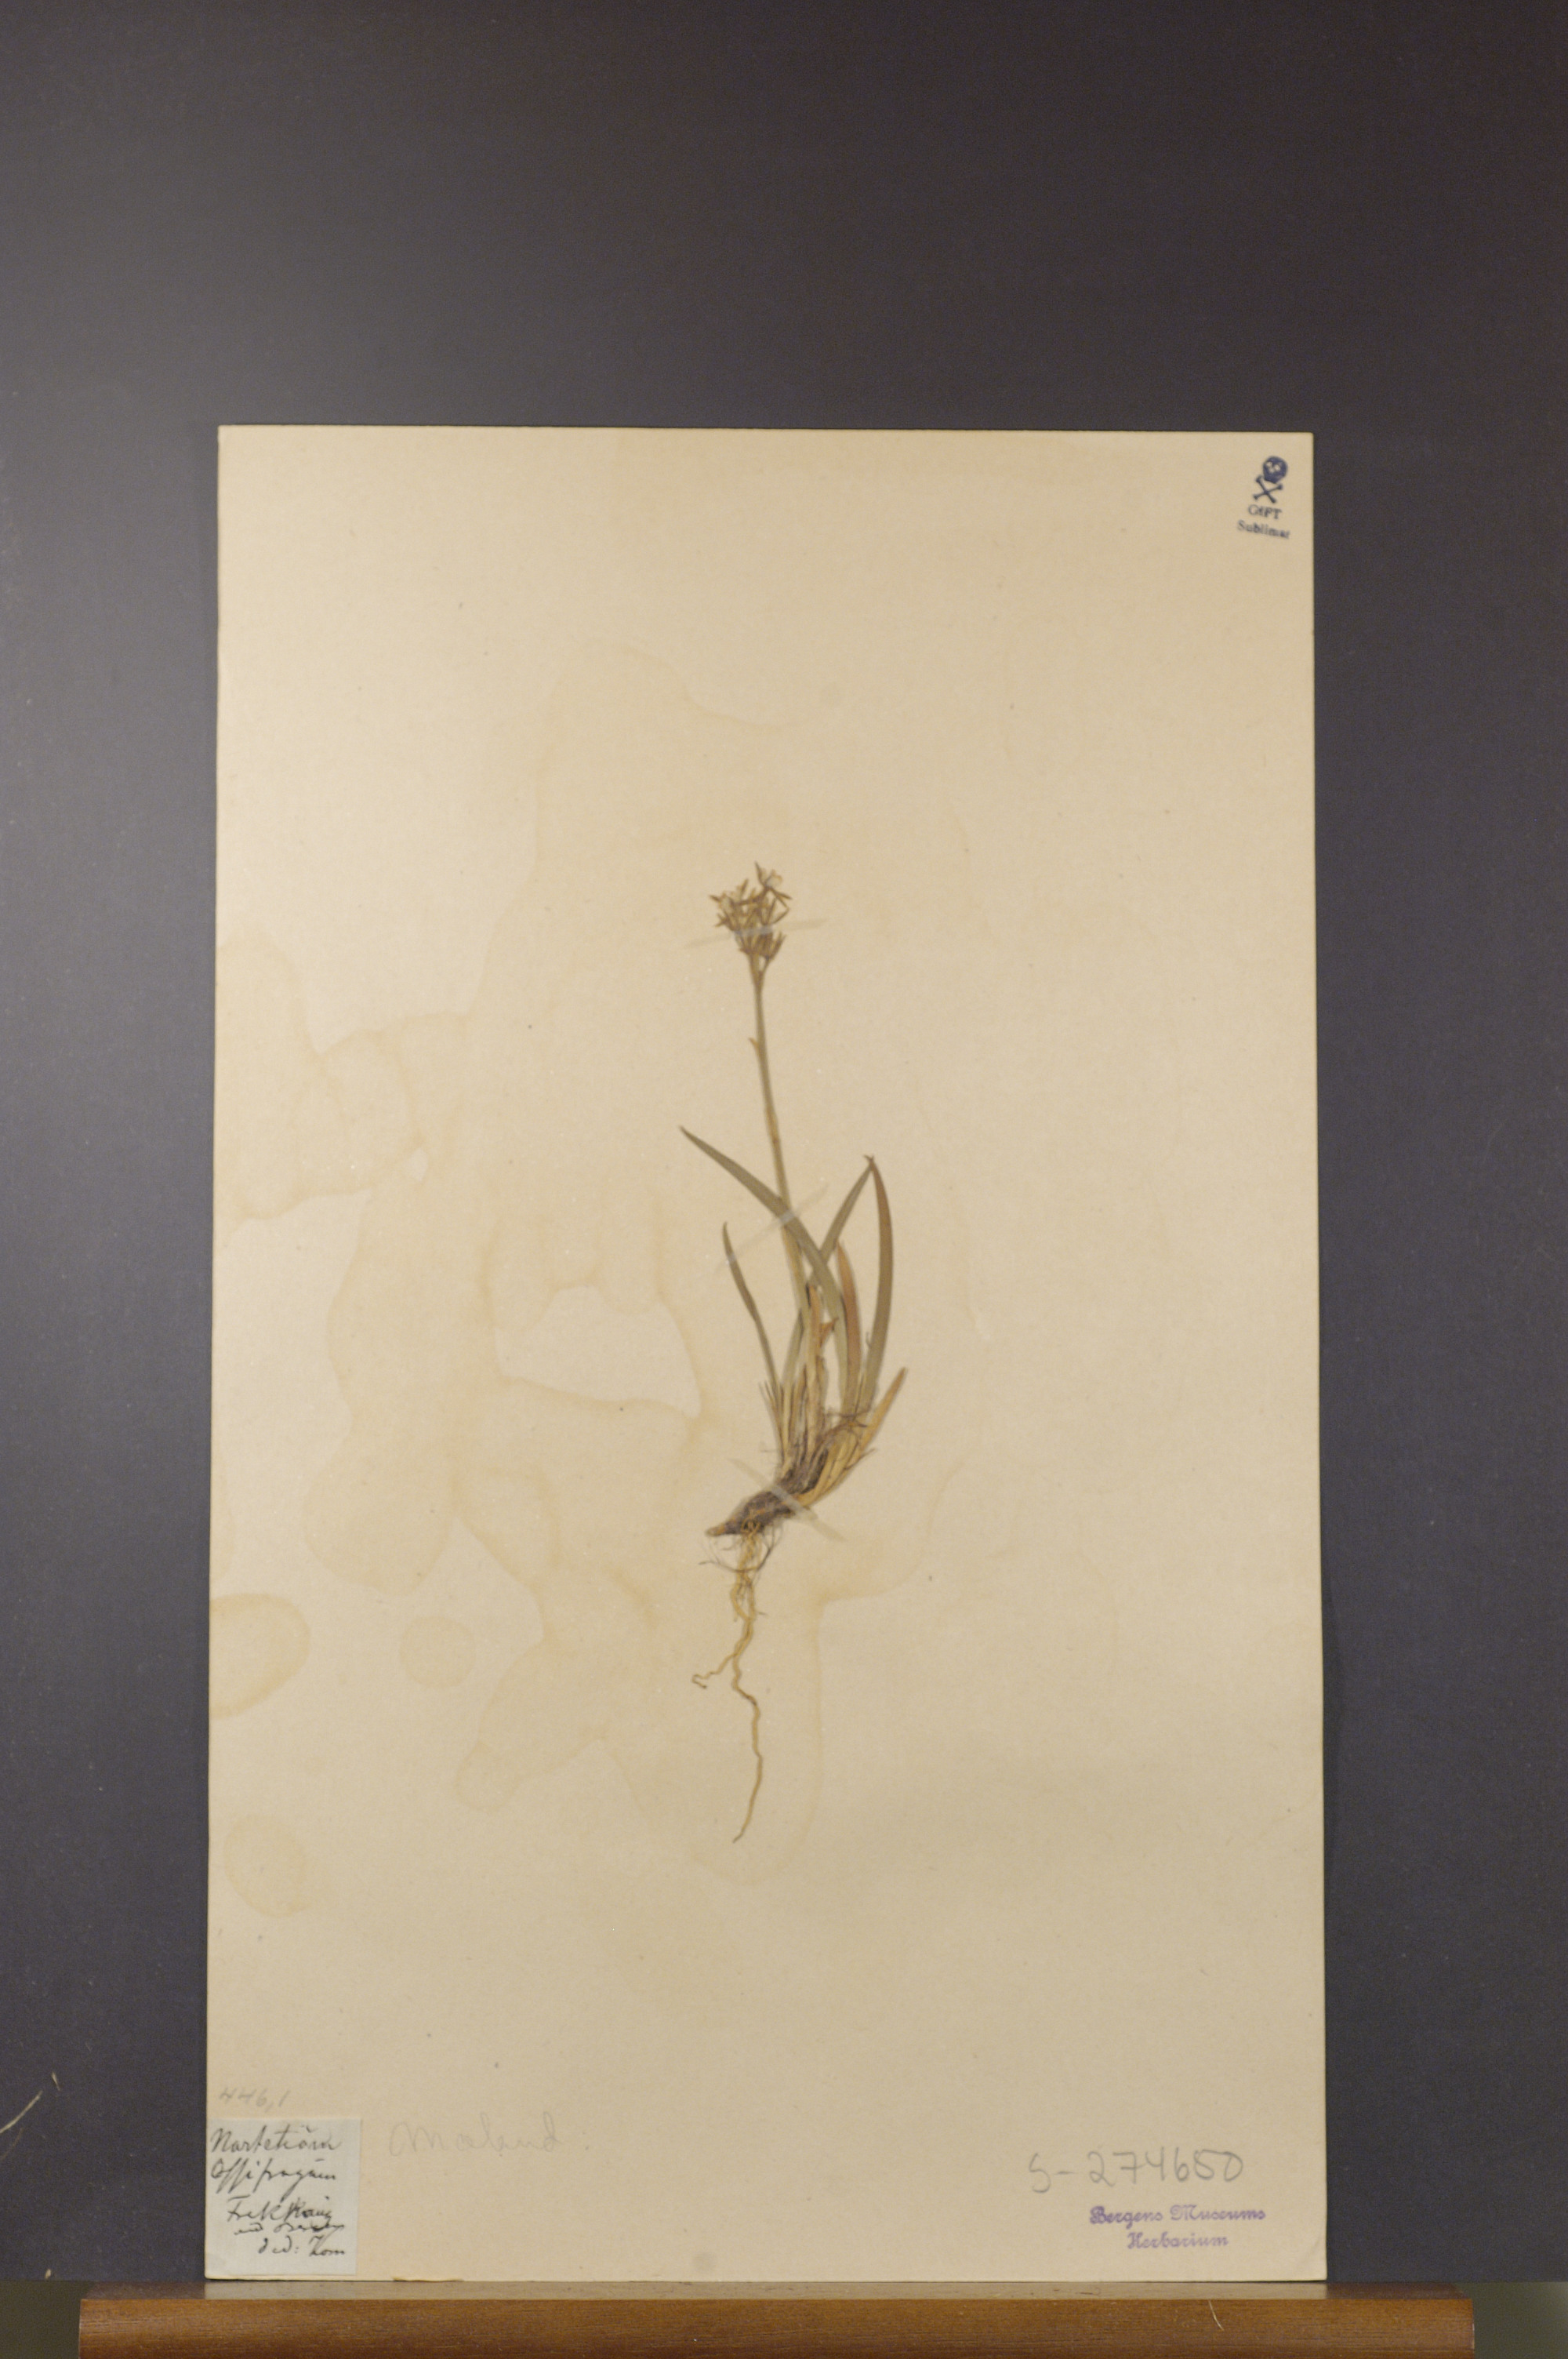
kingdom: Plantae
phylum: Tracheophyta
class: Liliopsida
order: Dioscoreales
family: Nartheciaceae
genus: Narthecium
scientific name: Narthecium ossifragum
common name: Bog asphodel
